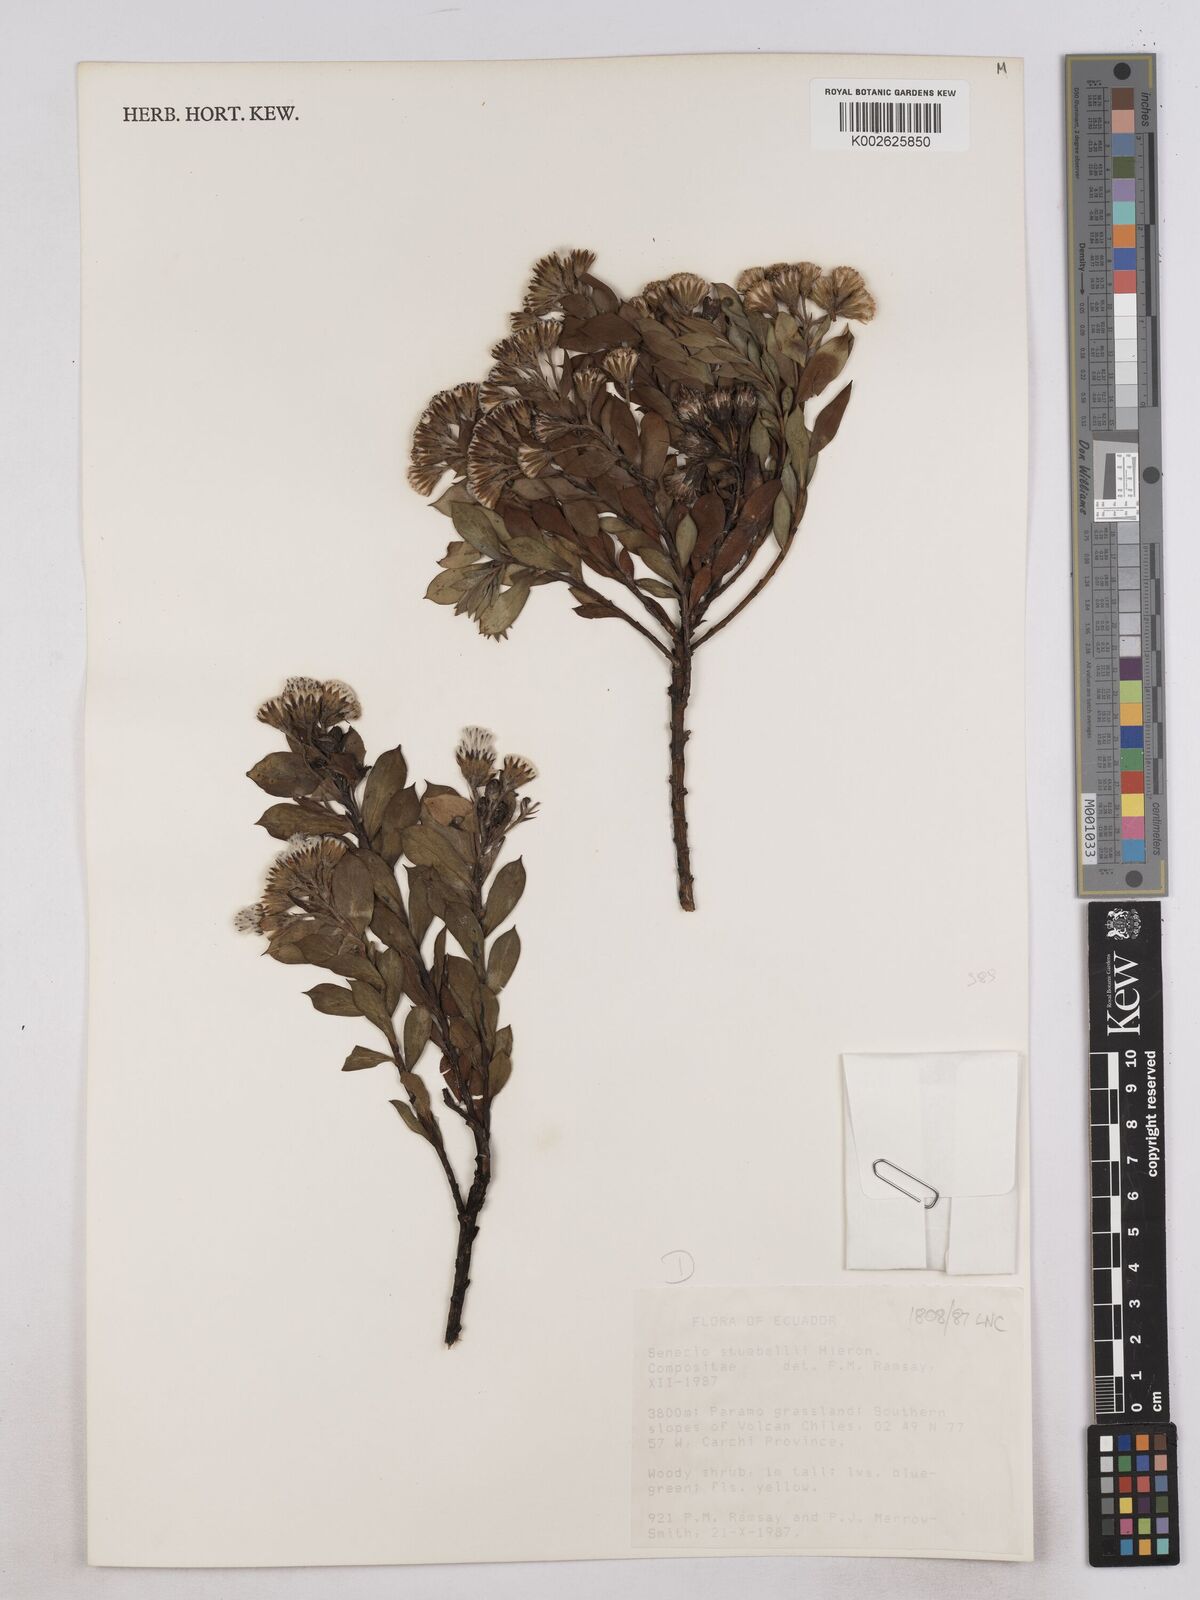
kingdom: Plantae
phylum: Tracheophyta
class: Magnoliopsida
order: Asterales
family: Asteraceae
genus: Monticalia
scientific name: Monticalia stuebelii
